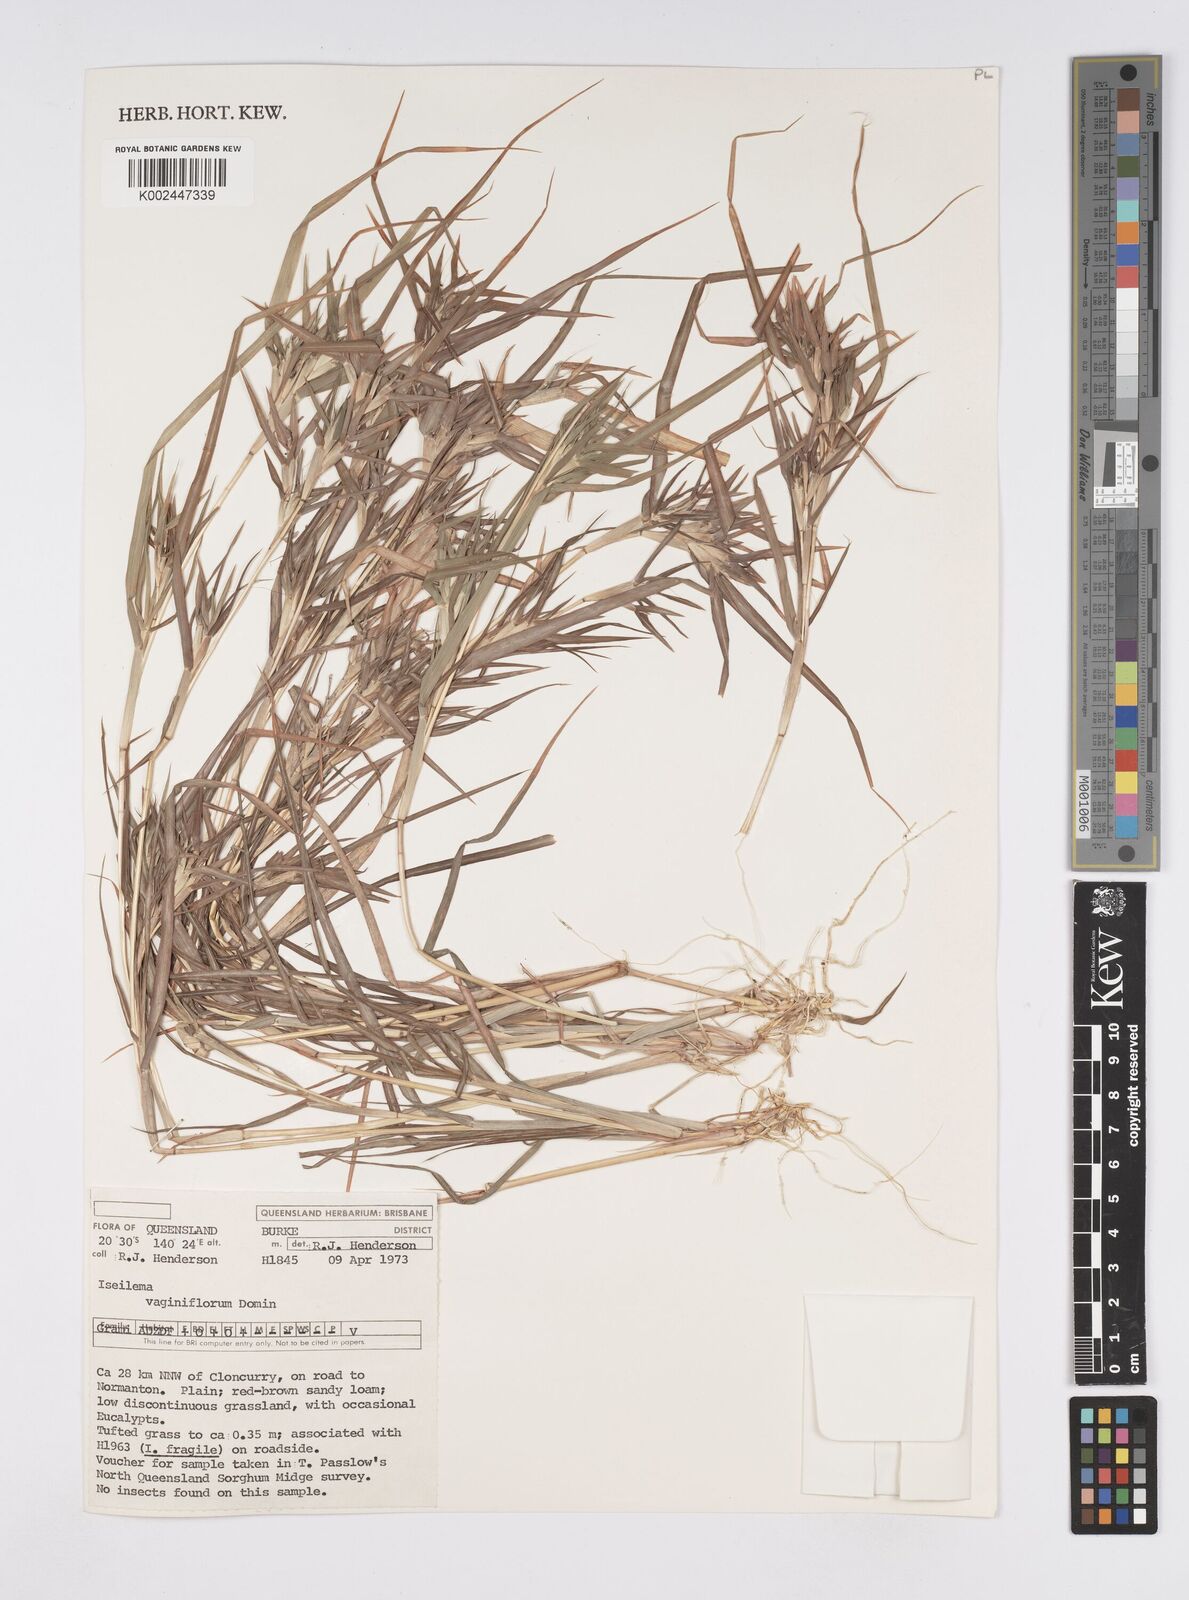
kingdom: Plantae
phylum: Tracheophyta
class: Liliopsida
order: Poales
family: Poaceae
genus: Iseilema
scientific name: Iseilema vaginiflorum
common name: Red flinders grass
